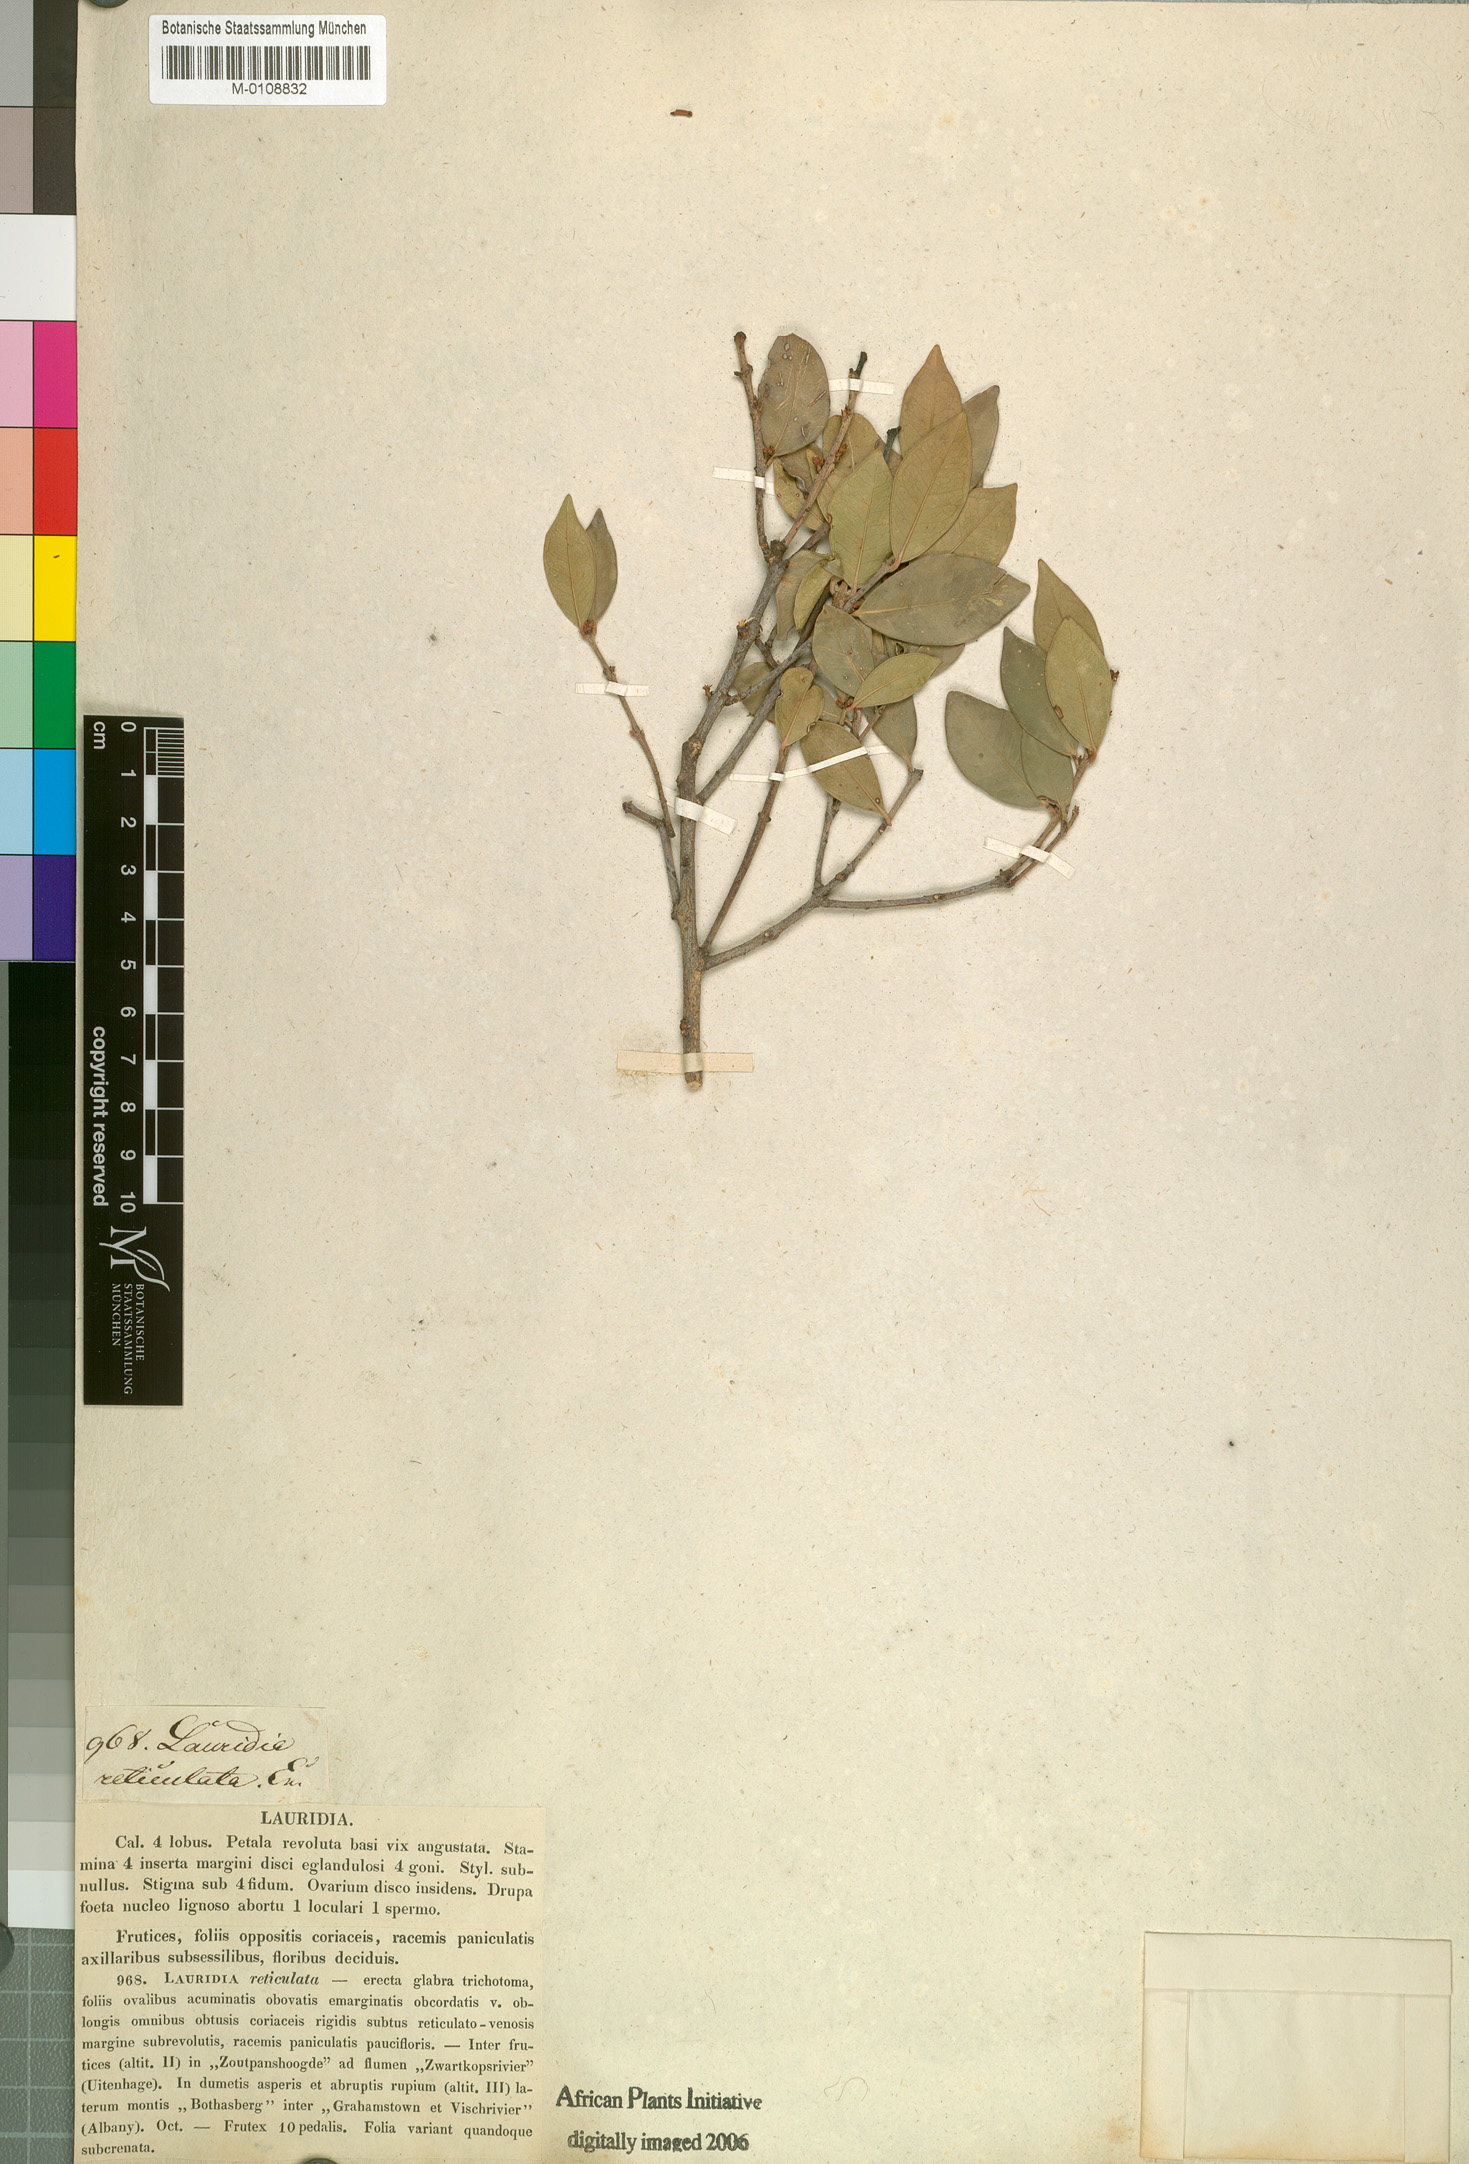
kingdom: Plantae
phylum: Tracheophyta
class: Magnoliopsida
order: Celastrales
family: Celastraceae
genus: Lauridia
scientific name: Lauridia reticulata
